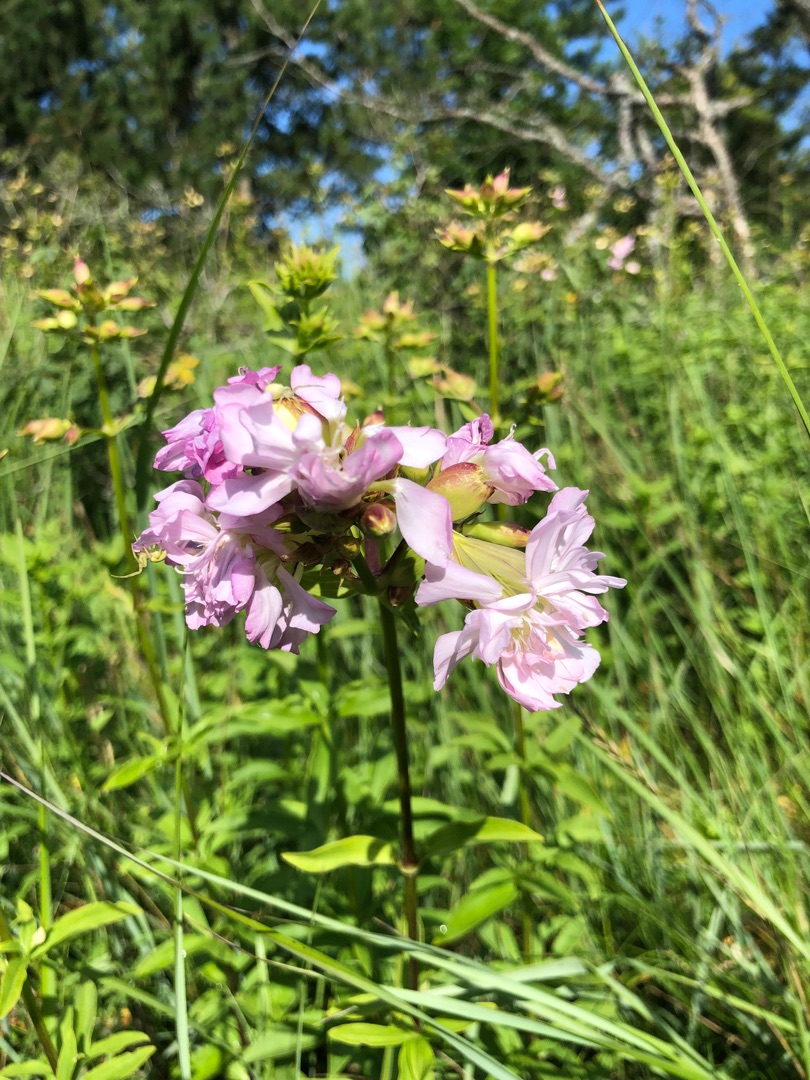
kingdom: Plantae
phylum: Tracheophyta
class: Magnoliopsida
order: Caryophyllales
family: Caryophyllaceae
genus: Saponaria
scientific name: Saponaria officinalis
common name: Sæbeurt
